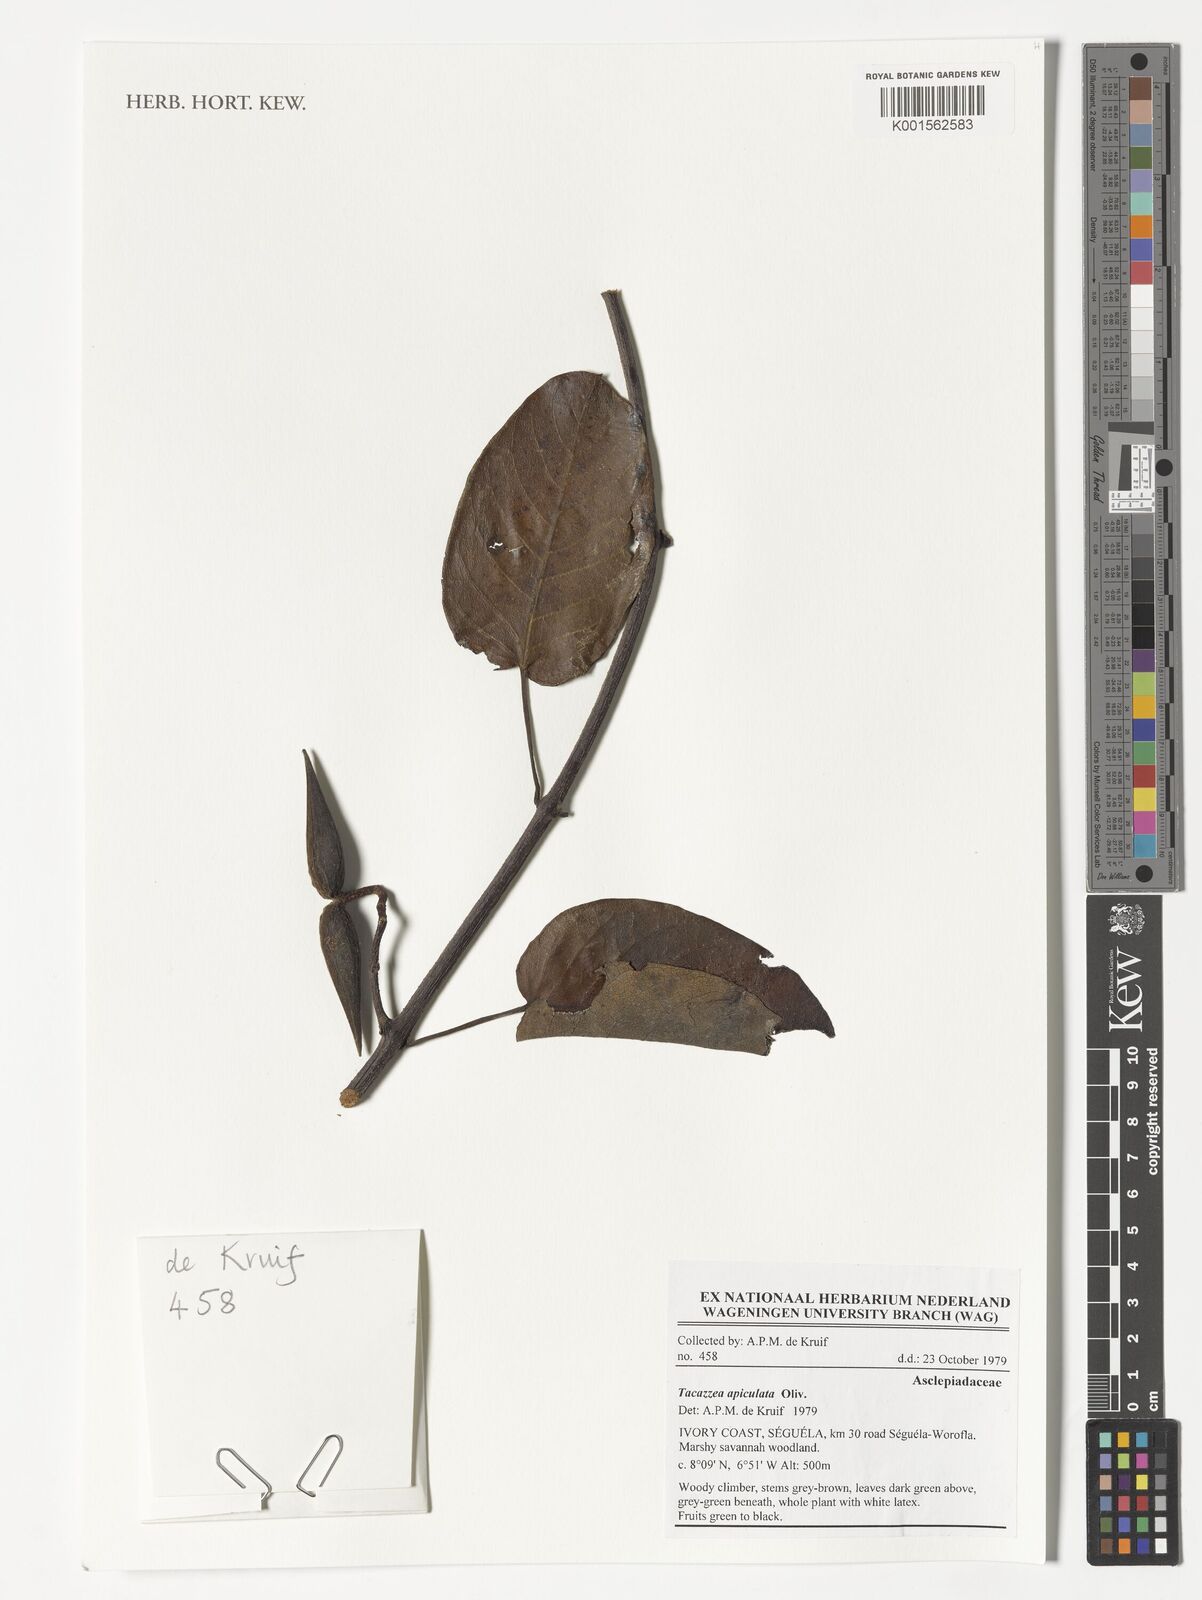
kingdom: Plantae
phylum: Tracheophyta
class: Magnoliopsida
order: Gentianales
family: Apocynaceae
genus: Tacazzea
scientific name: Tacazzea apiculata
